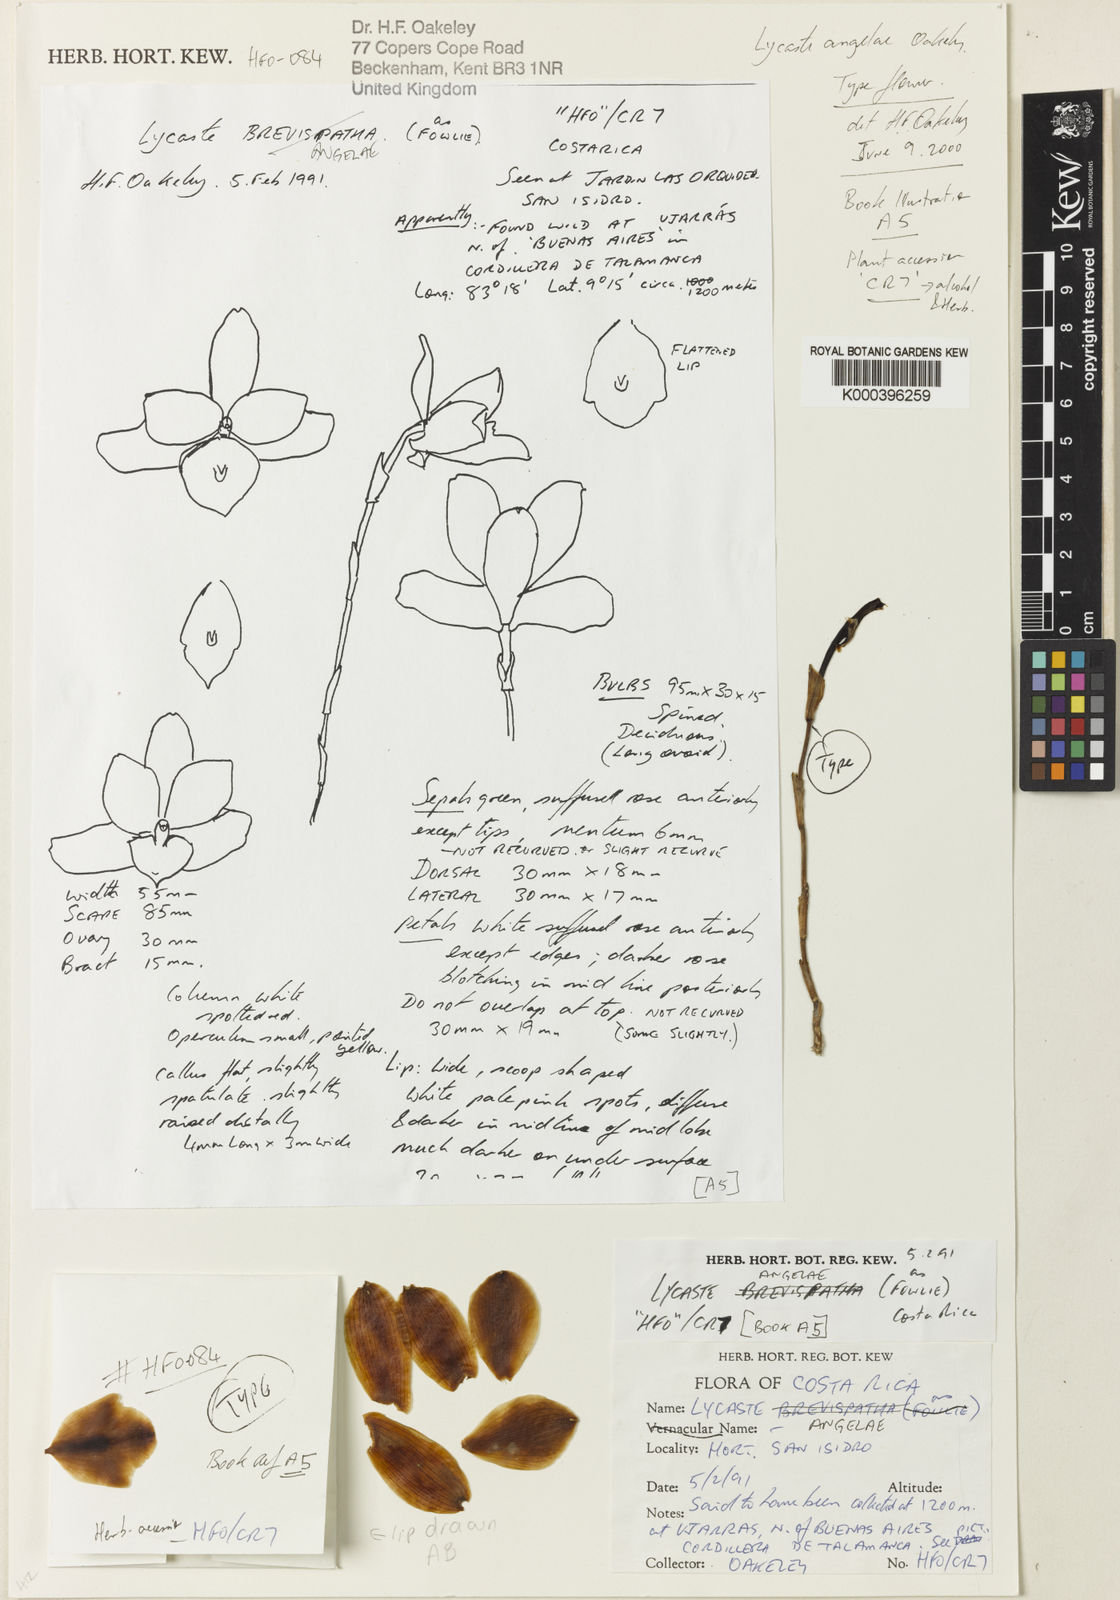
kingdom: Plantae
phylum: Tracheophyta
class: Liliopsida
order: Asparagales
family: Orchidaceae
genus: Lycaste
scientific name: Lycaste angelae
